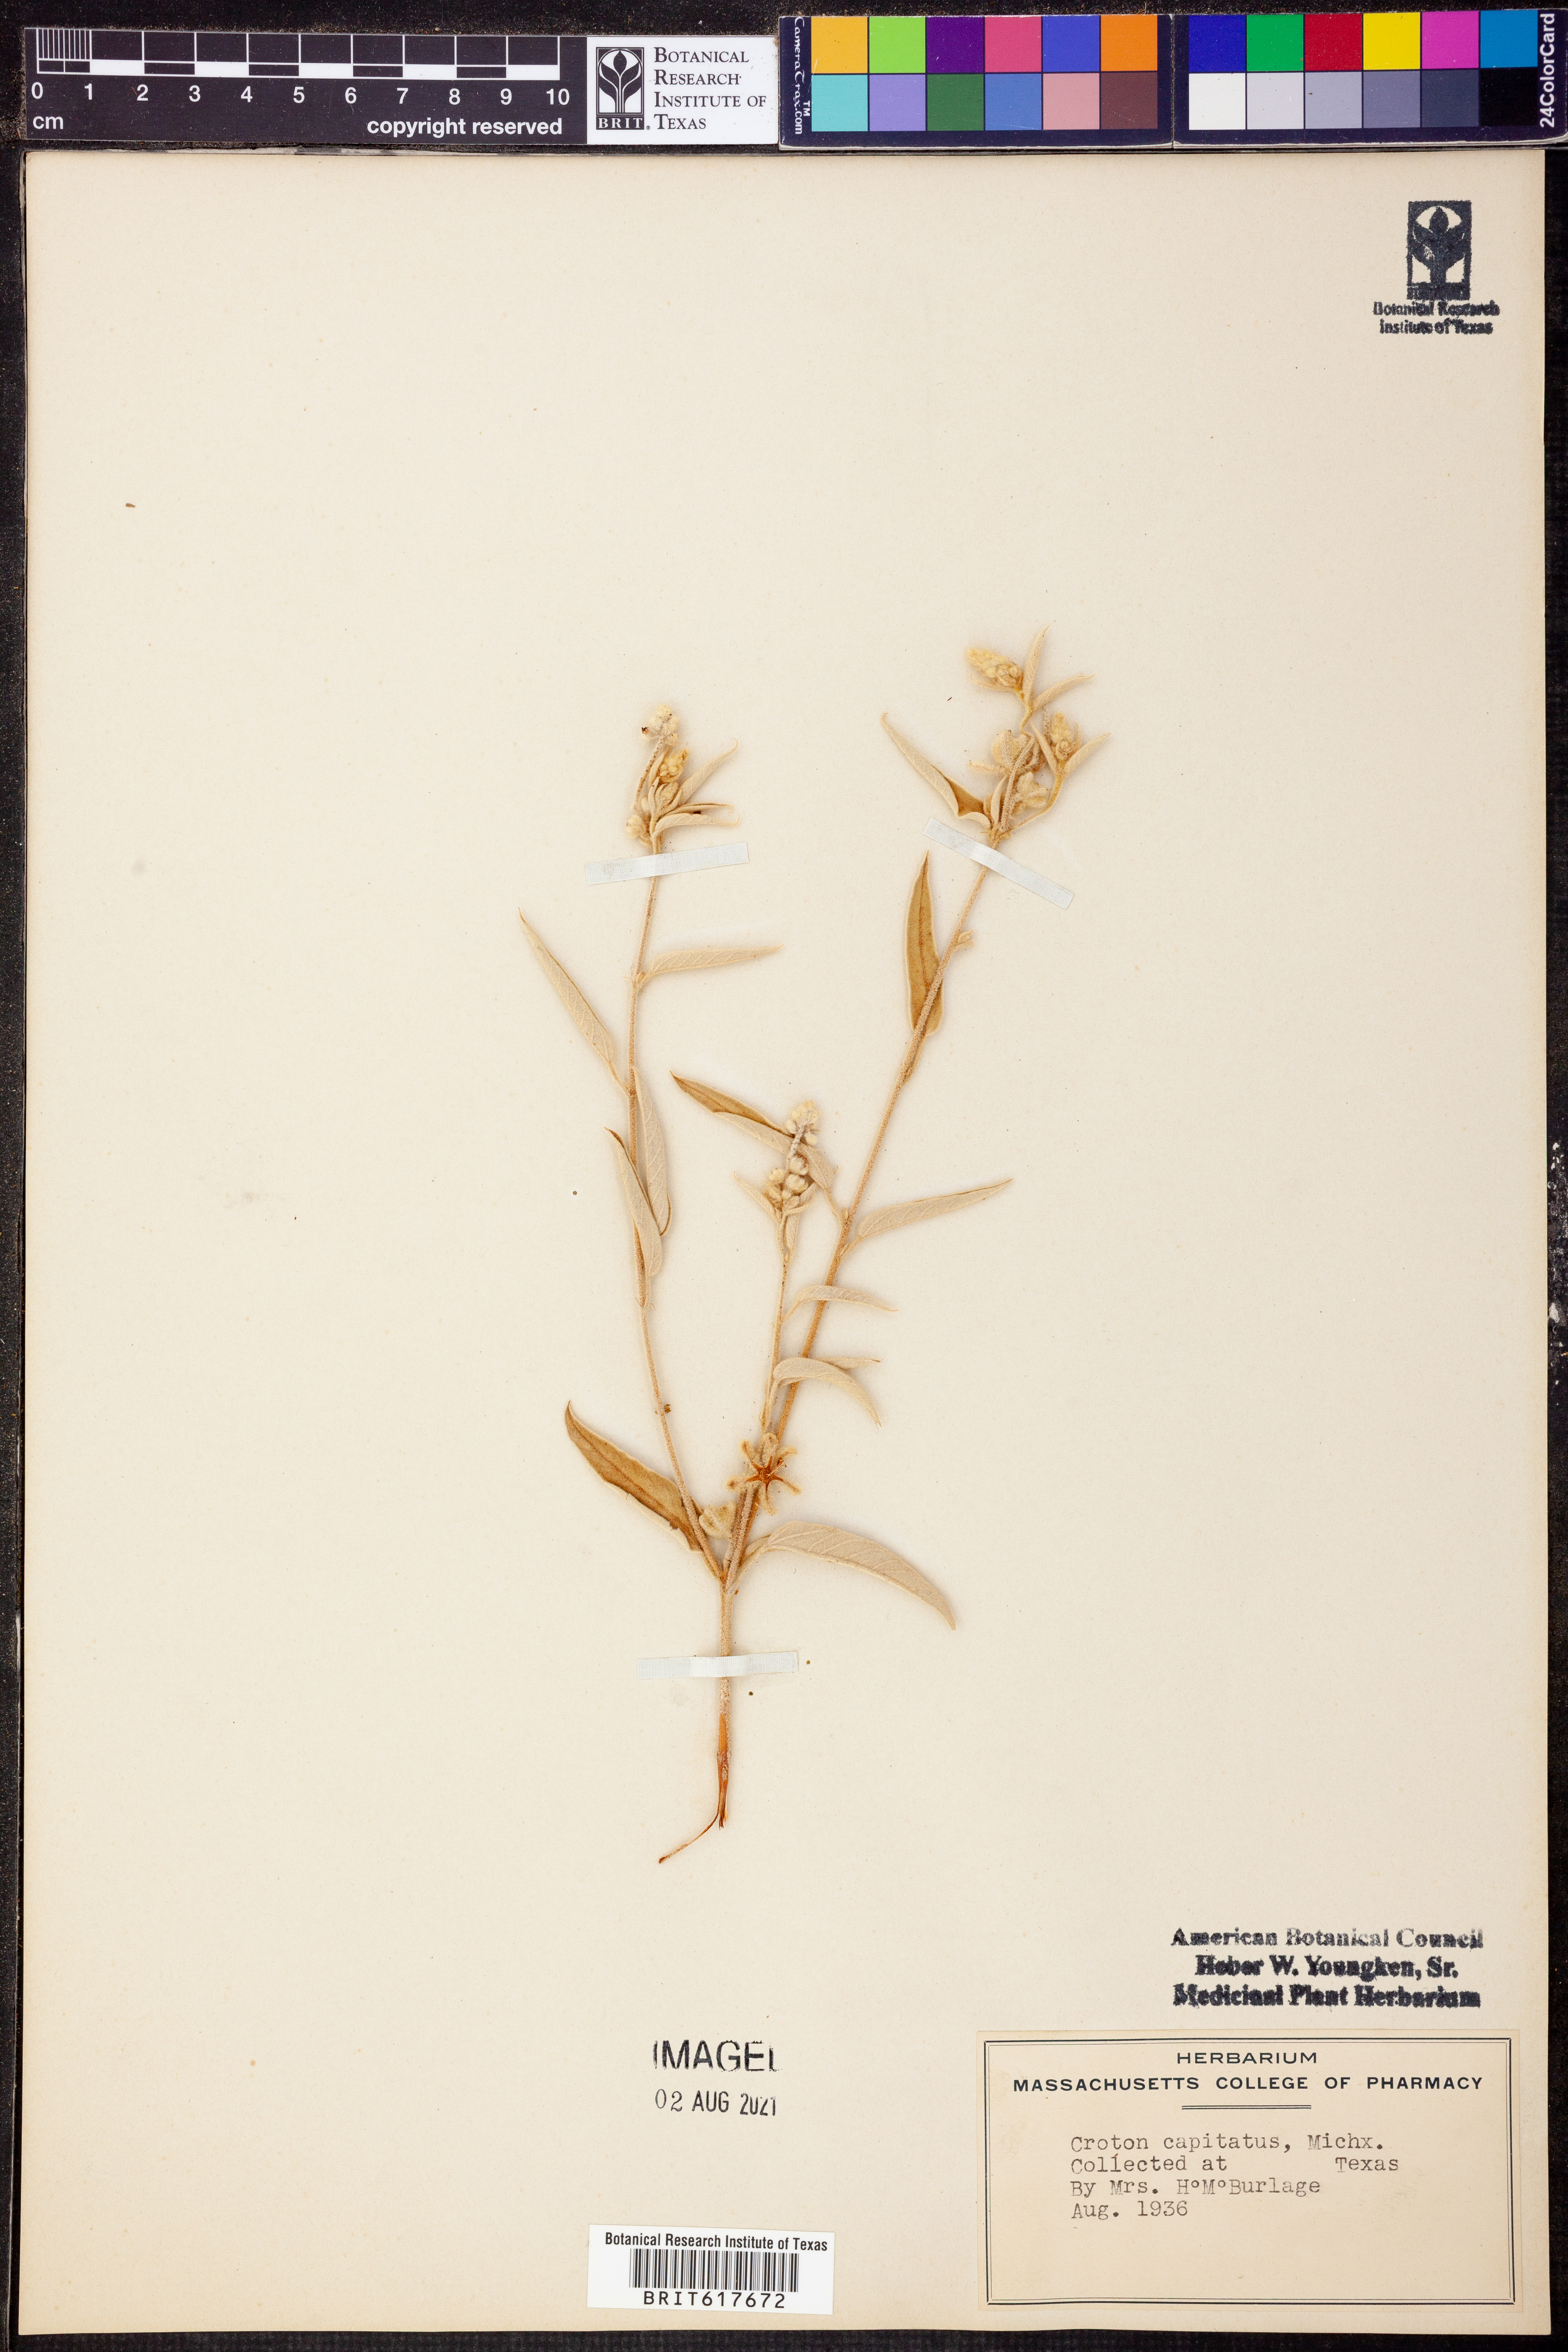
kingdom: Plantae
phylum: Tracheophyta
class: Magnoliopsida
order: Malpighiales
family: Euphorbiaceae
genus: Croton
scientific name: Croton capitatus
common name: Woolly croton
